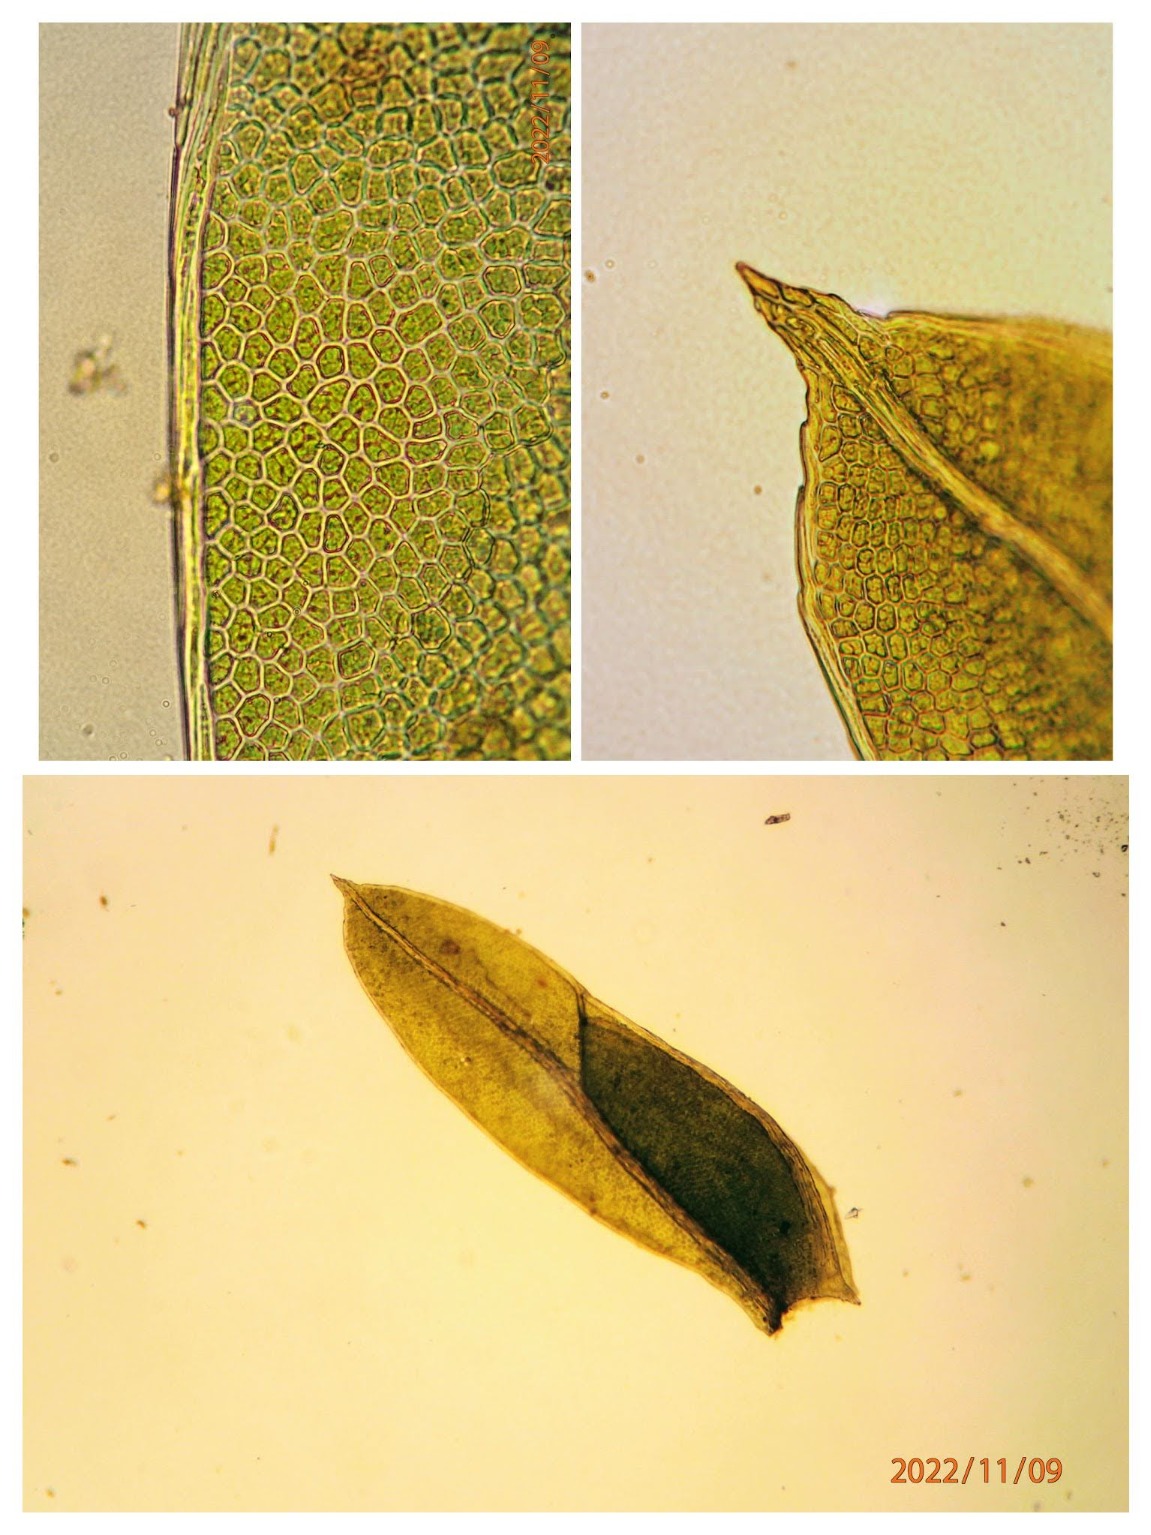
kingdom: Plantae
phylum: Bryophyta
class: Bryopsida
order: Dicranales
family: Fissidentaceae
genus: Fissidens
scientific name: Fissidens bryoides
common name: Top-rademos
